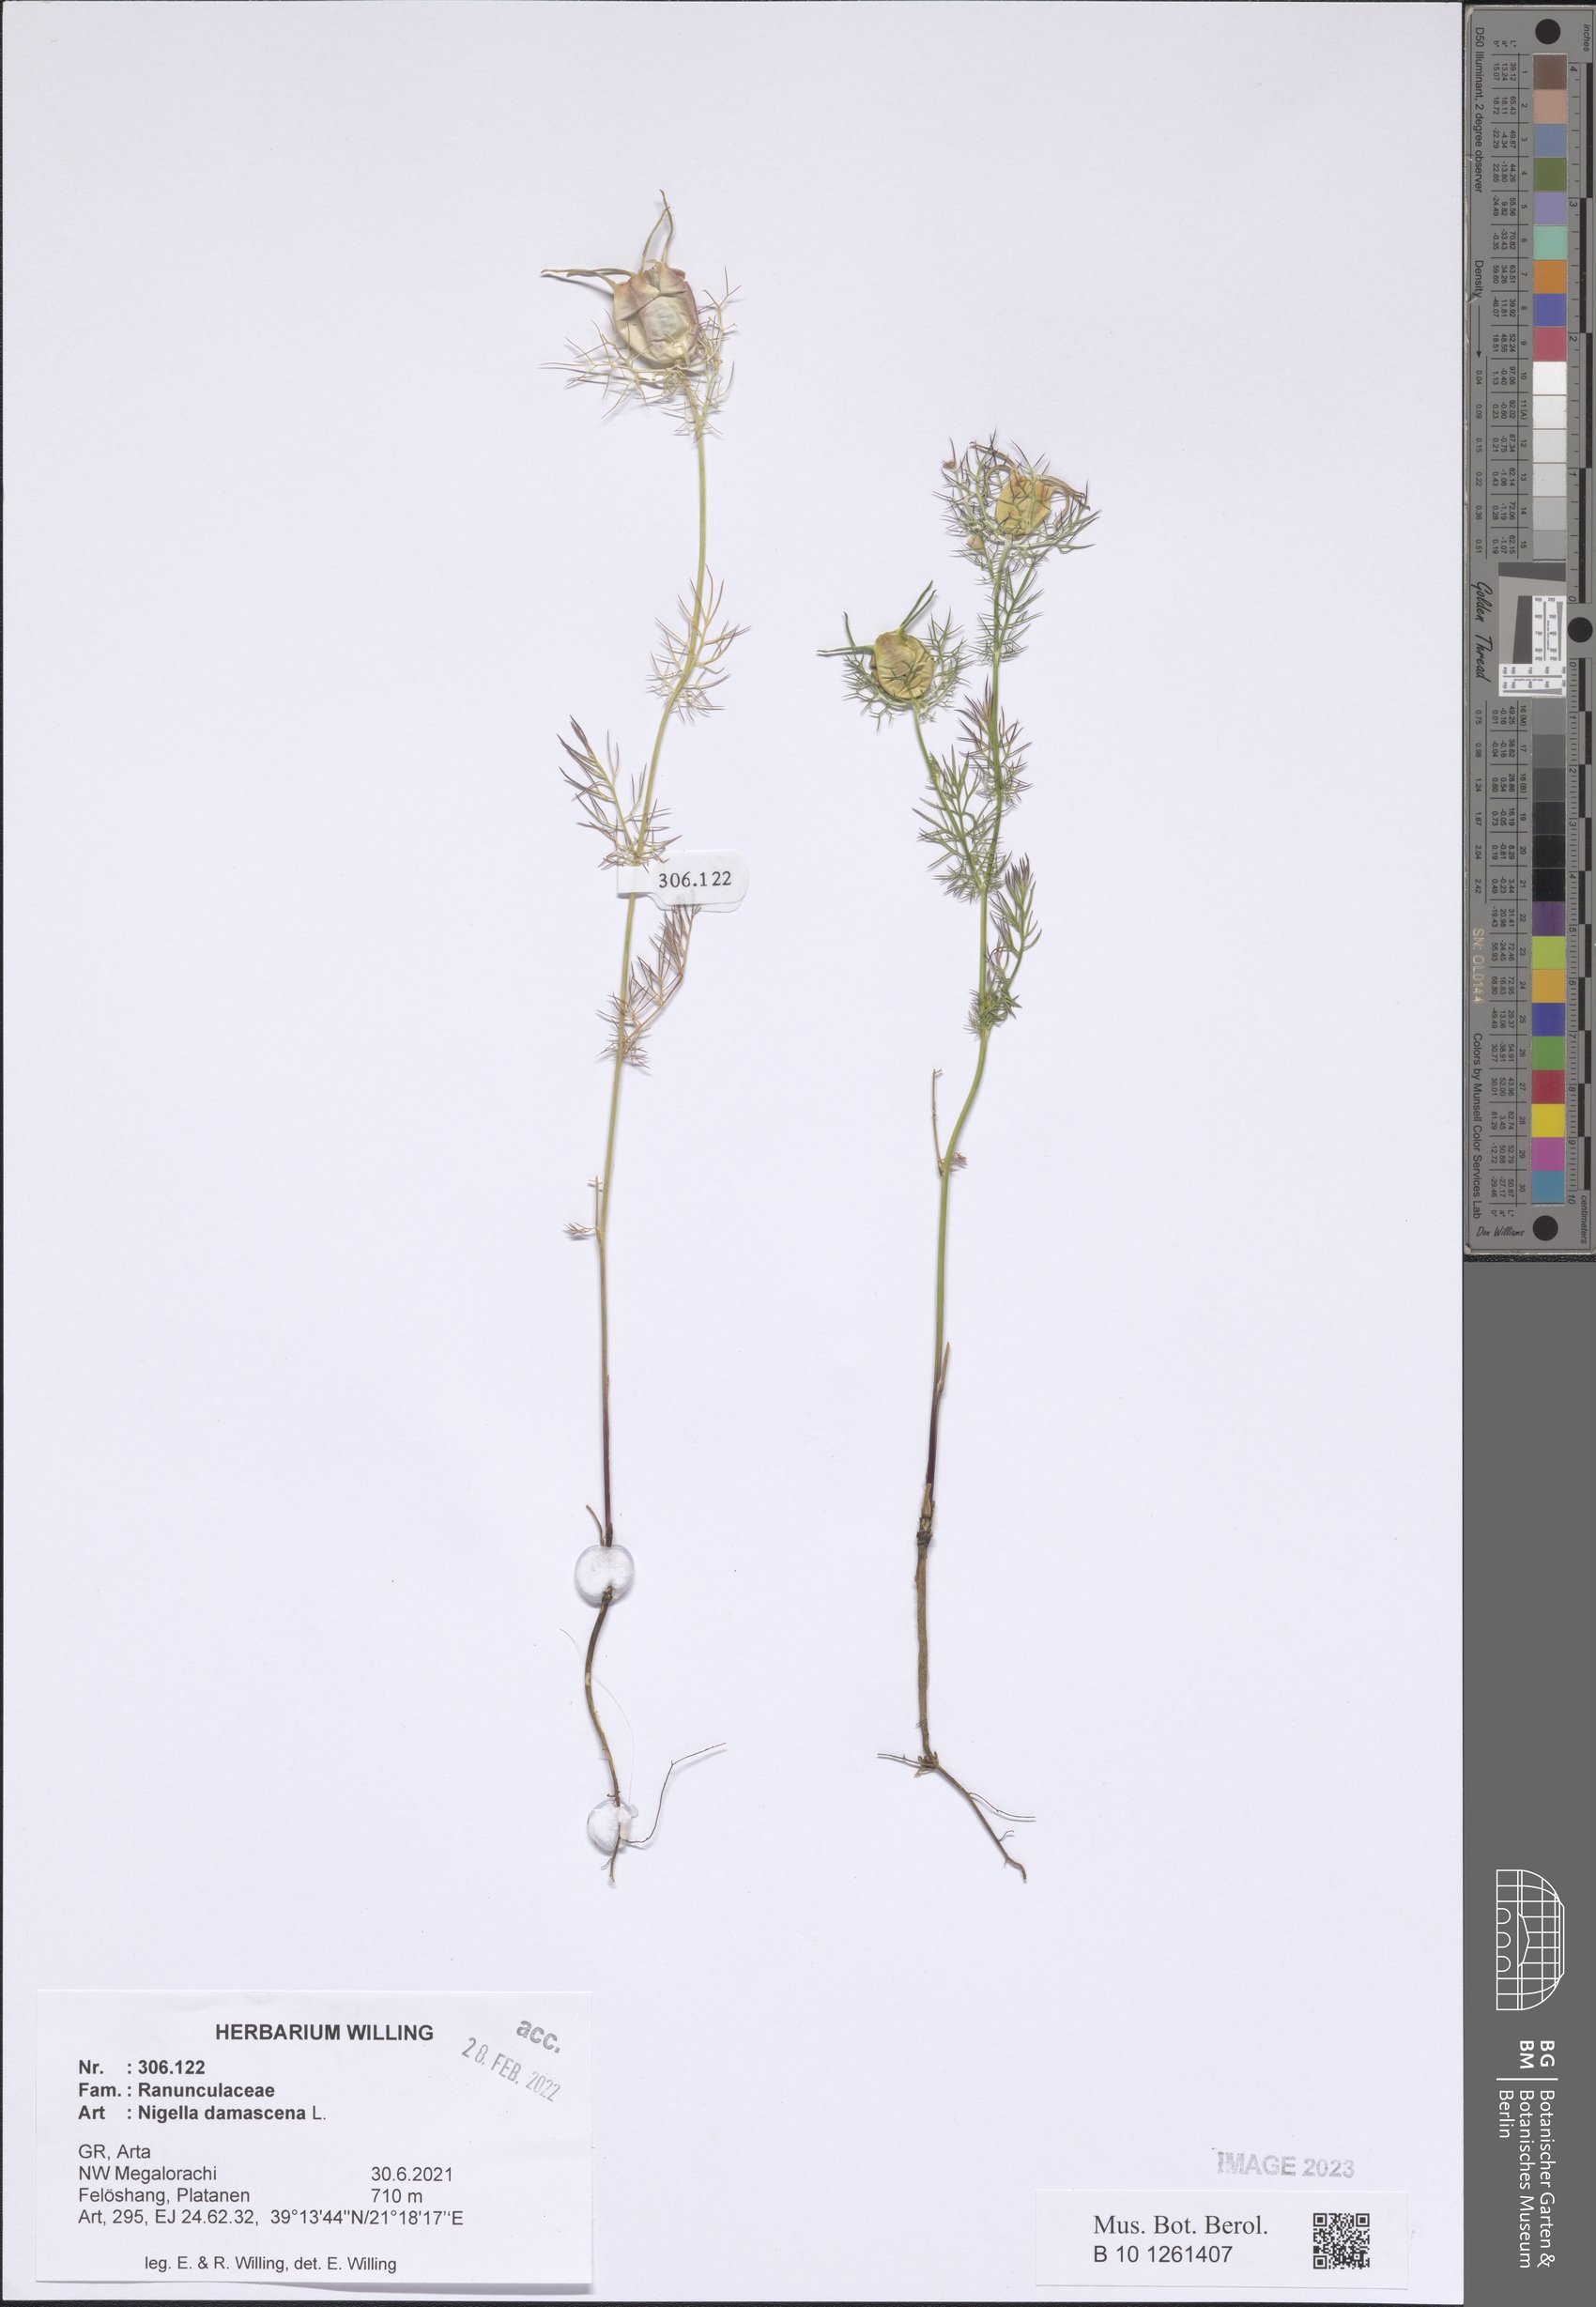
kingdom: Plantae
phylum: Tracheophyta
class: Magnoliopsida
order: Ranunculales
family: Ranunculaceae
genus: Nigella
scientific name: Nigella damascena
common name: Love-in-a-mist
